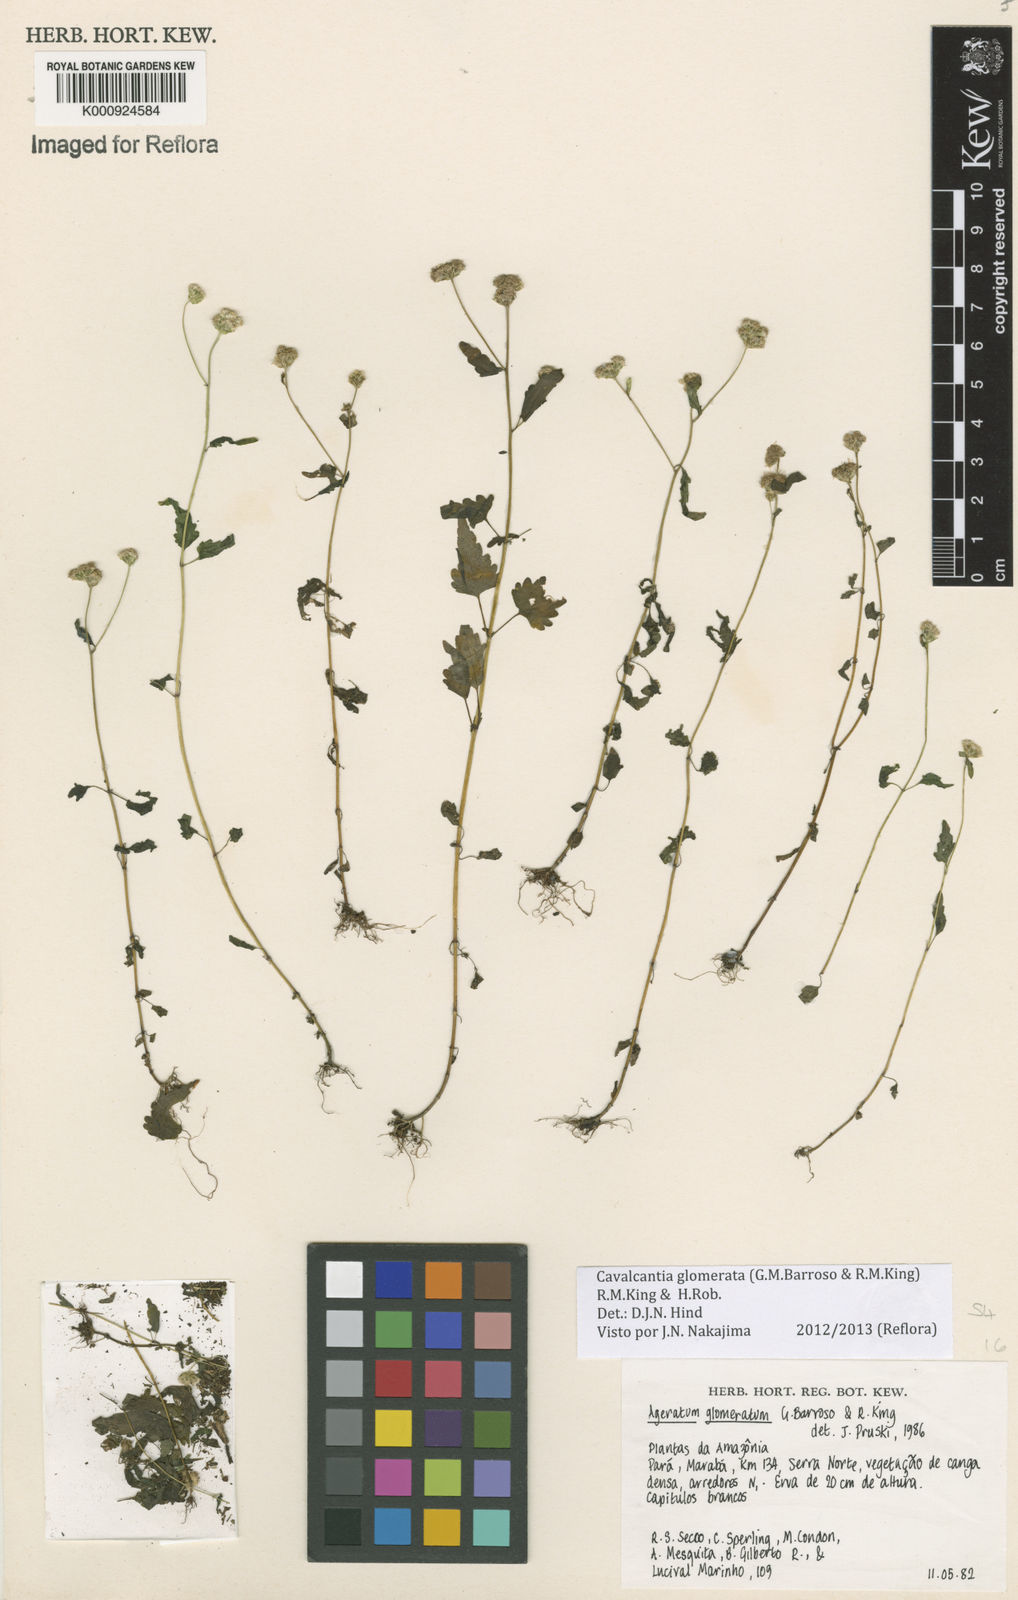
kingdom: Plantae
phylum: Tracheophyta
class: Magnoliopsida
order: Asterales
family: Asteraceae
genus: Cavalcantia
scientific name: Cavalcantia glomerata
